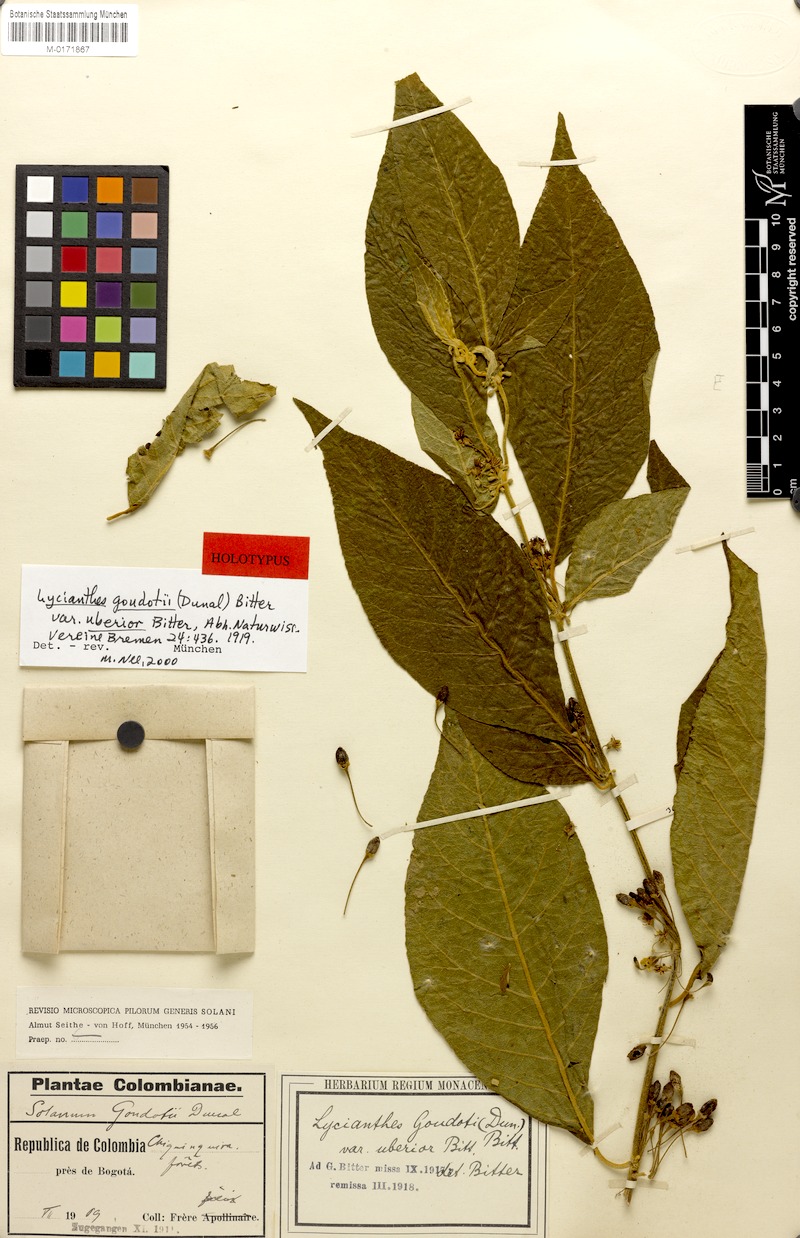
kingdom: Plantae
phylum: Tracheophyta
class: Magnoliopsida
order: Solanales
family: Solanaceae
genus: Lycianthes
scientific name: Lycianthes acutifolia
